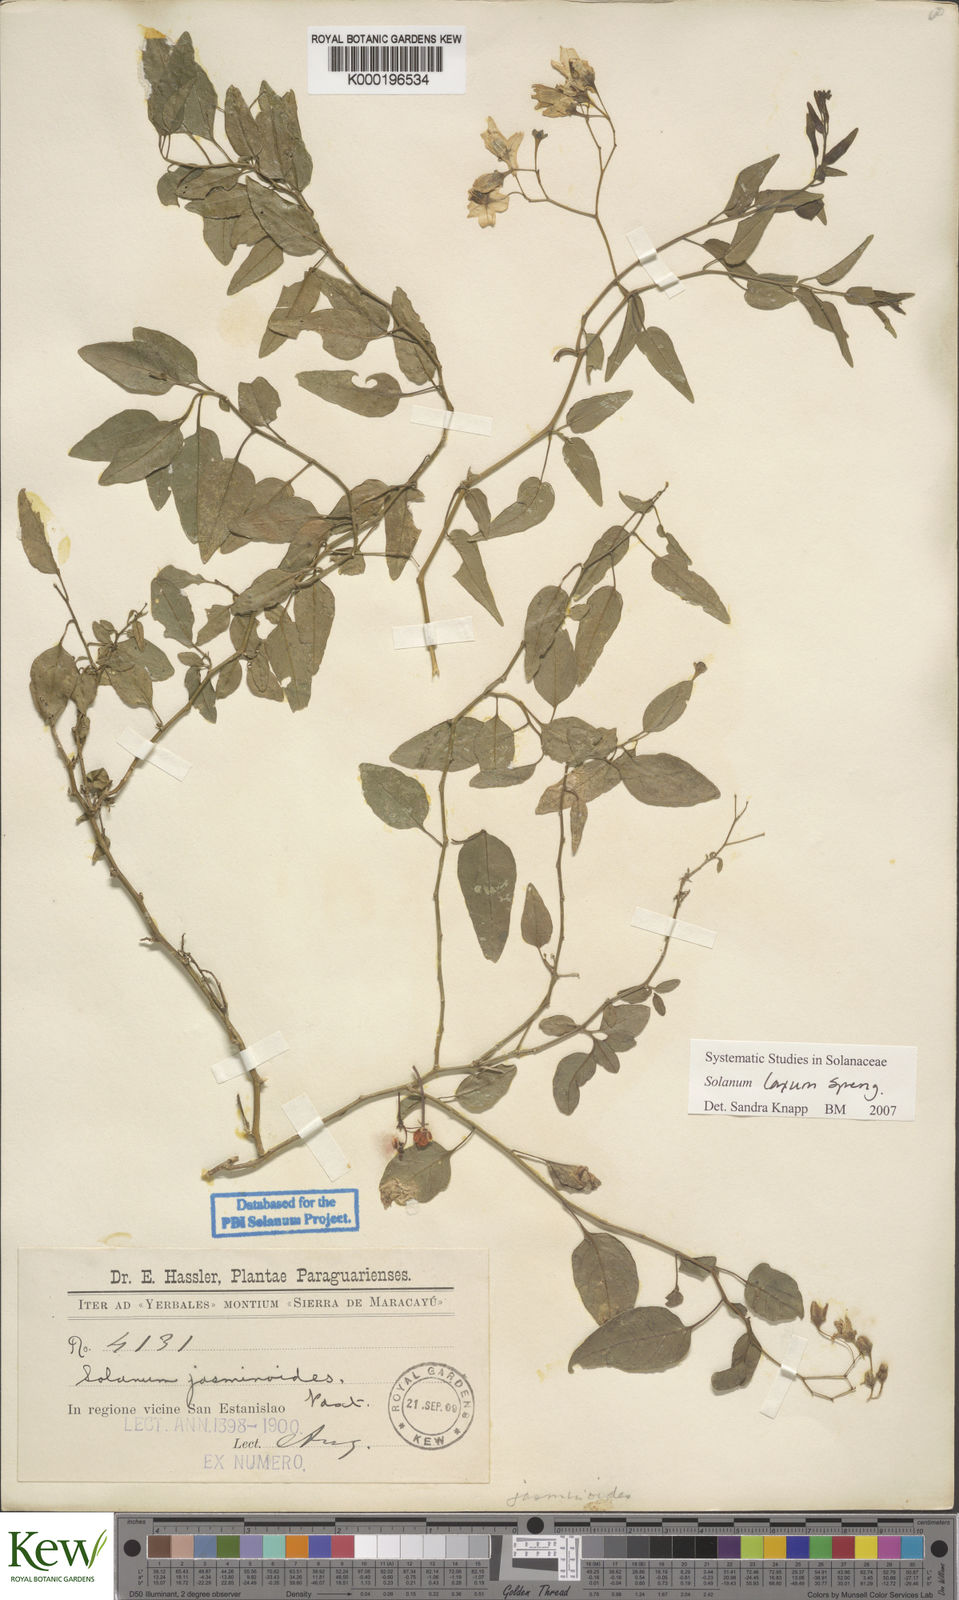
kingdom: Plantae
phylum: Tracheophyta
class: Magnoliopsida
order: Solanales
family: Solanaceae
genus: Solanum
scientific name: Solanum laxum
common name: Nightshade
